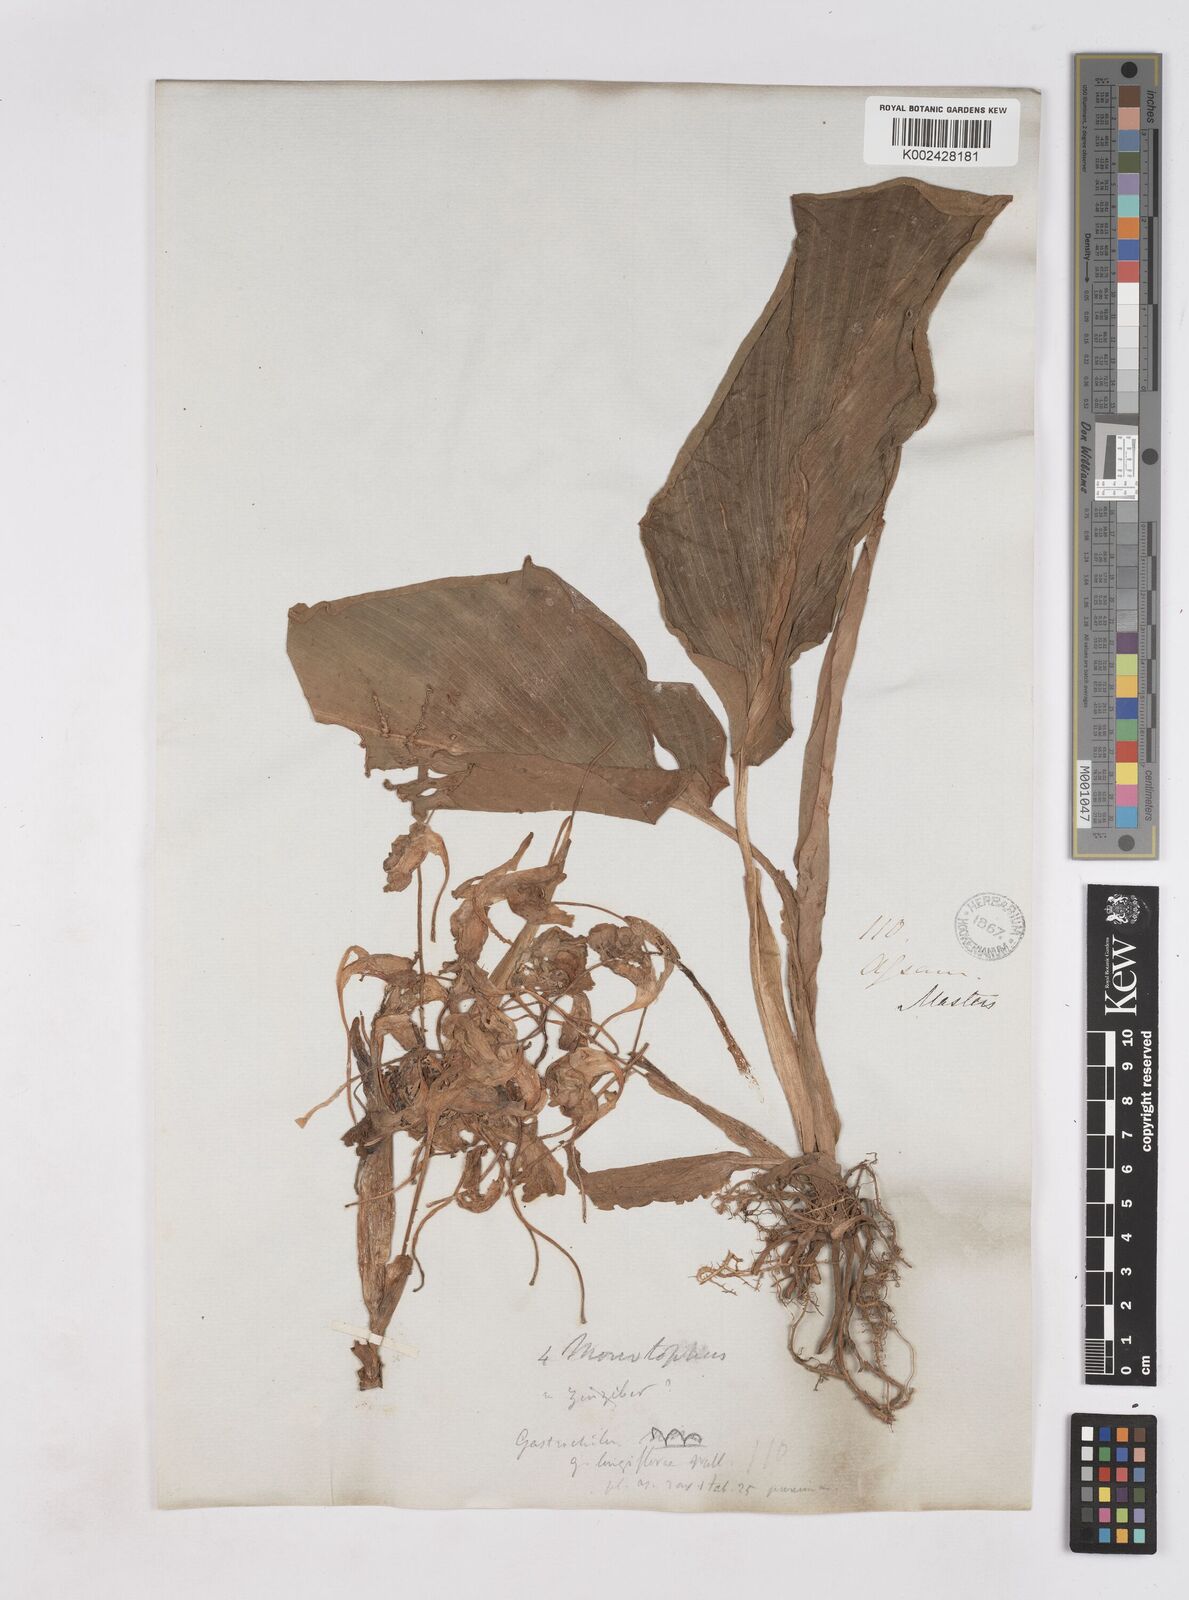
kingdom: Plantae
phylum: Tracheophyta
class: Liliopsida
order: Zingiberales
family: Zingiberaceae
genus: Boesenbergia
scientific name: Boesenbergia longiflora
